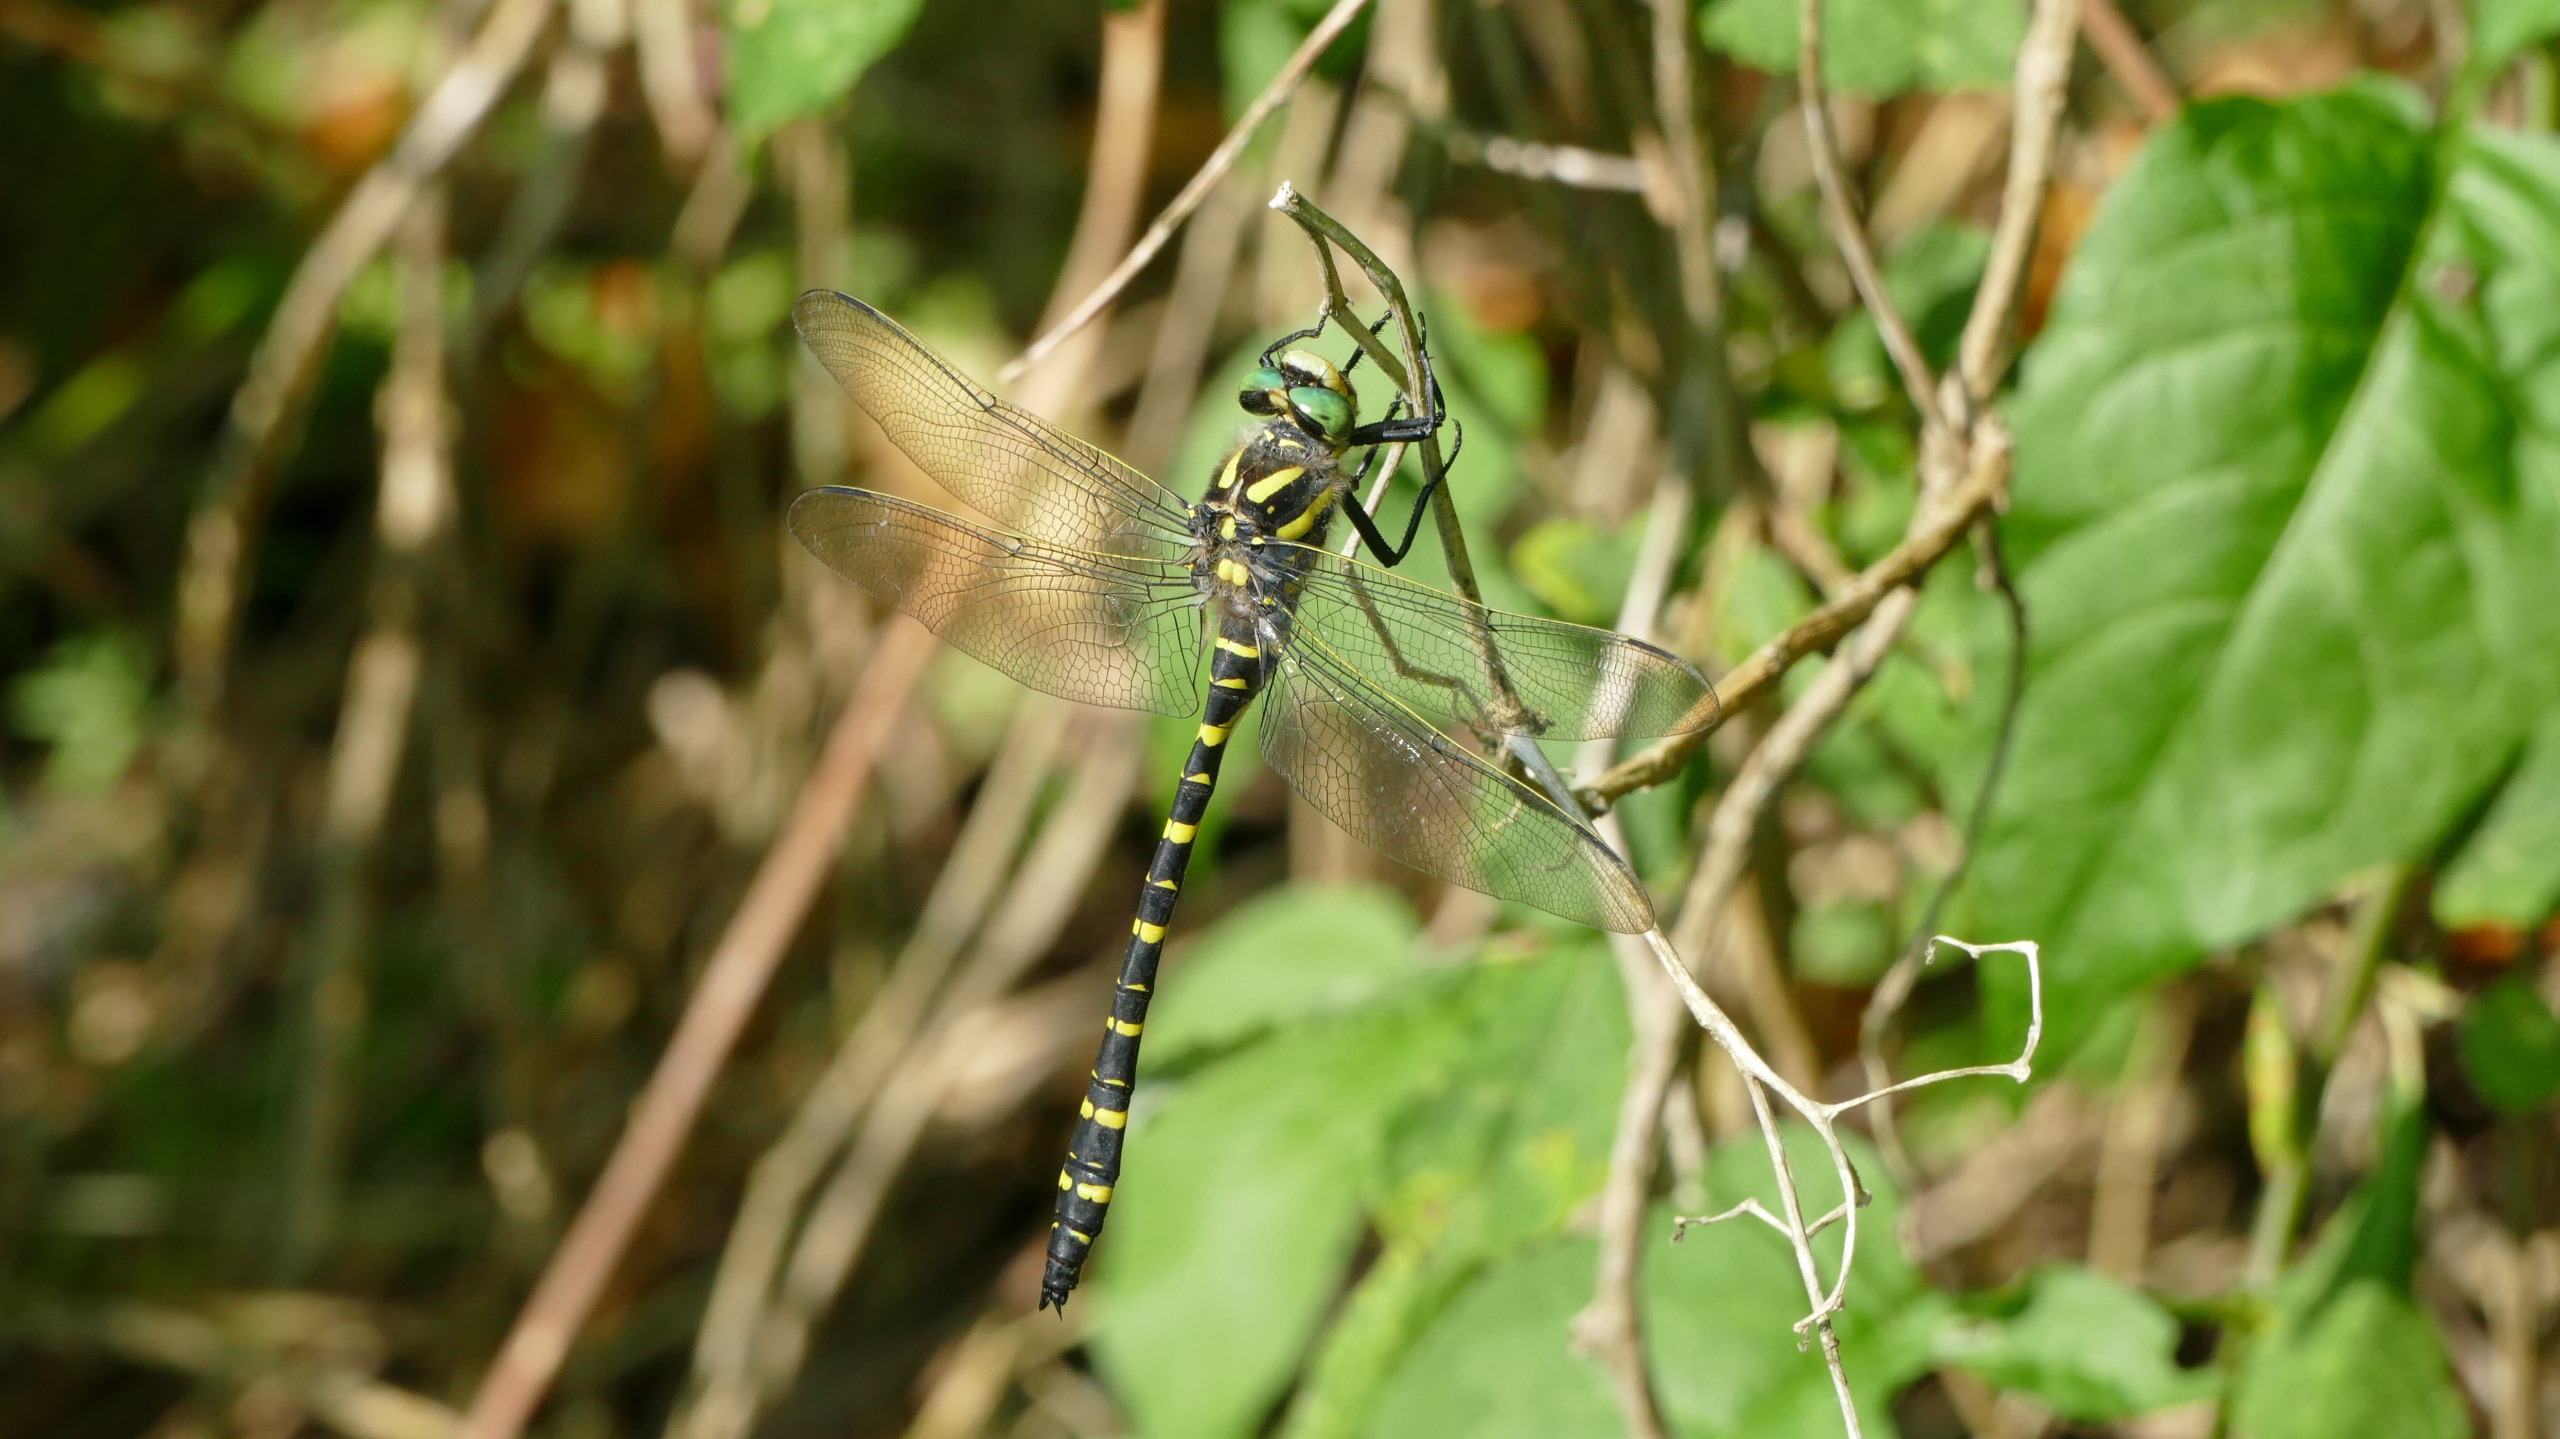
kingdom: Animalia
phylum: Arthropoda
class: Insecta
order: Odonata
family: Cordulegastridae
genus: Cordulegaster
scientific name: Cordulegaster boltonii
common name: Kongeguldsmed
